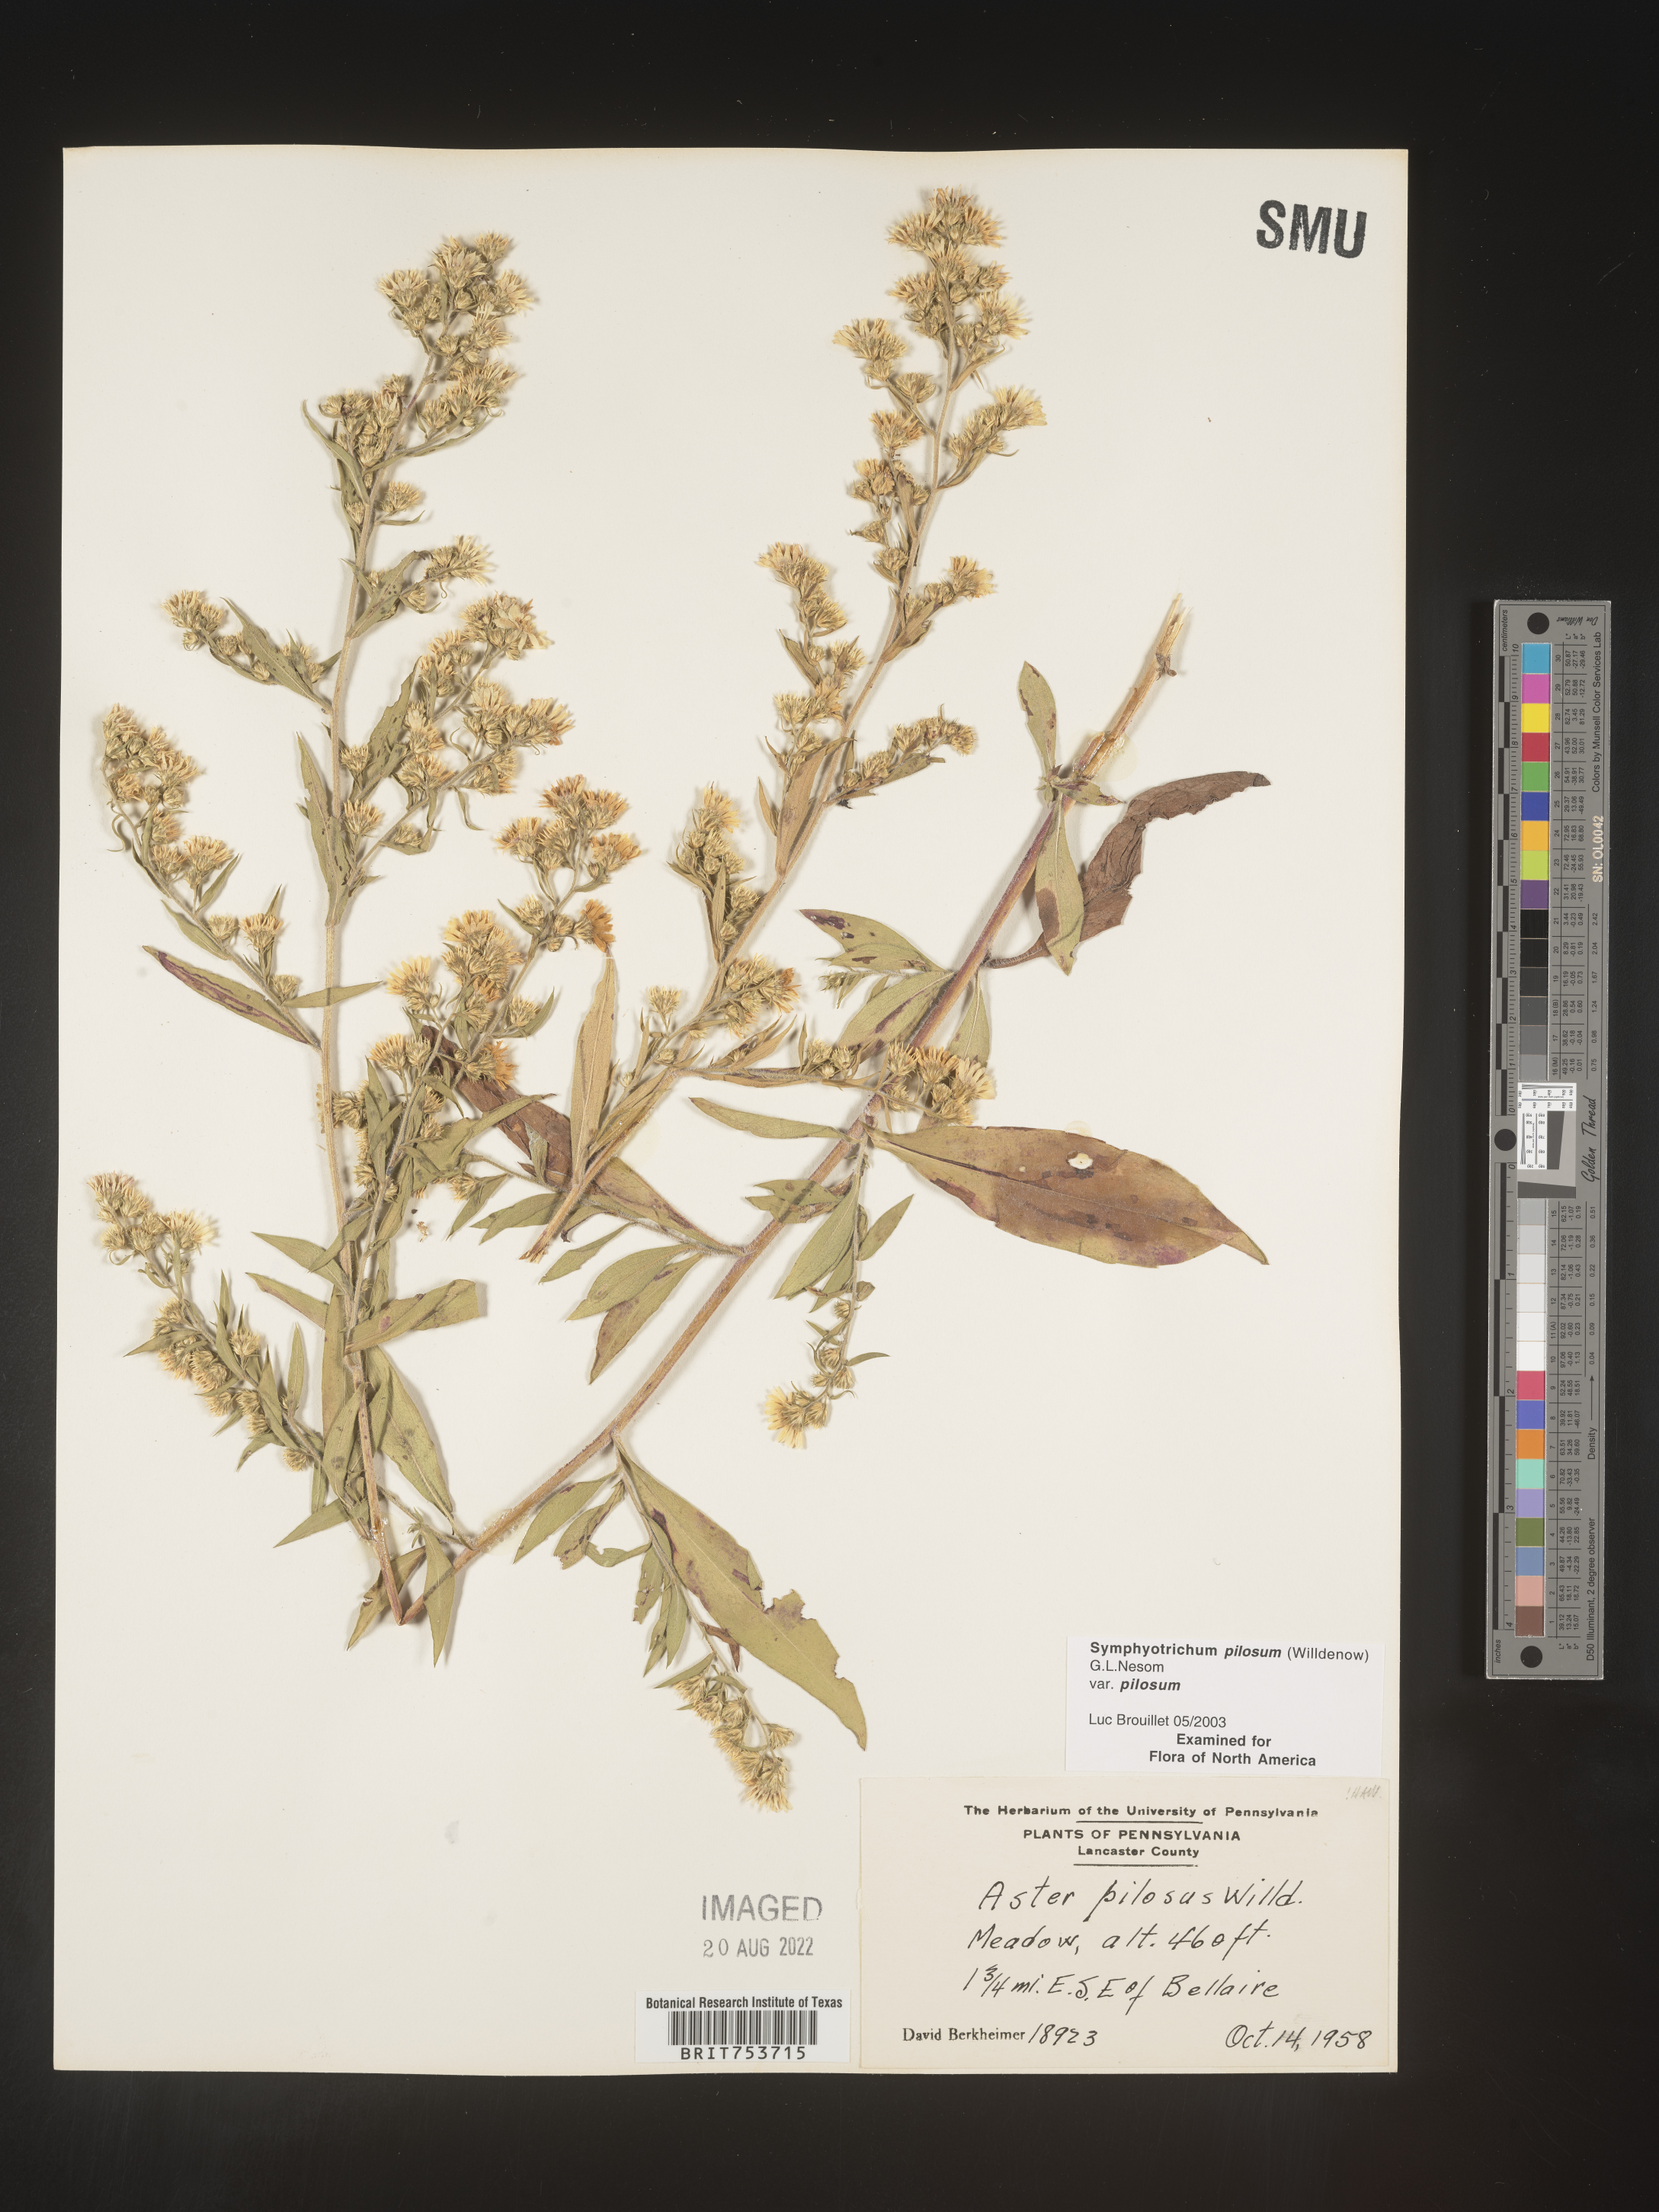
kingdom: Plantae
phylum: Tracheophyta
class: Magnoliopsida
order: Asterales
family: Asteraceae
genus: Symphyotrichum
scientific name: Symphyotrichum pilosum
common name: Awl aster
